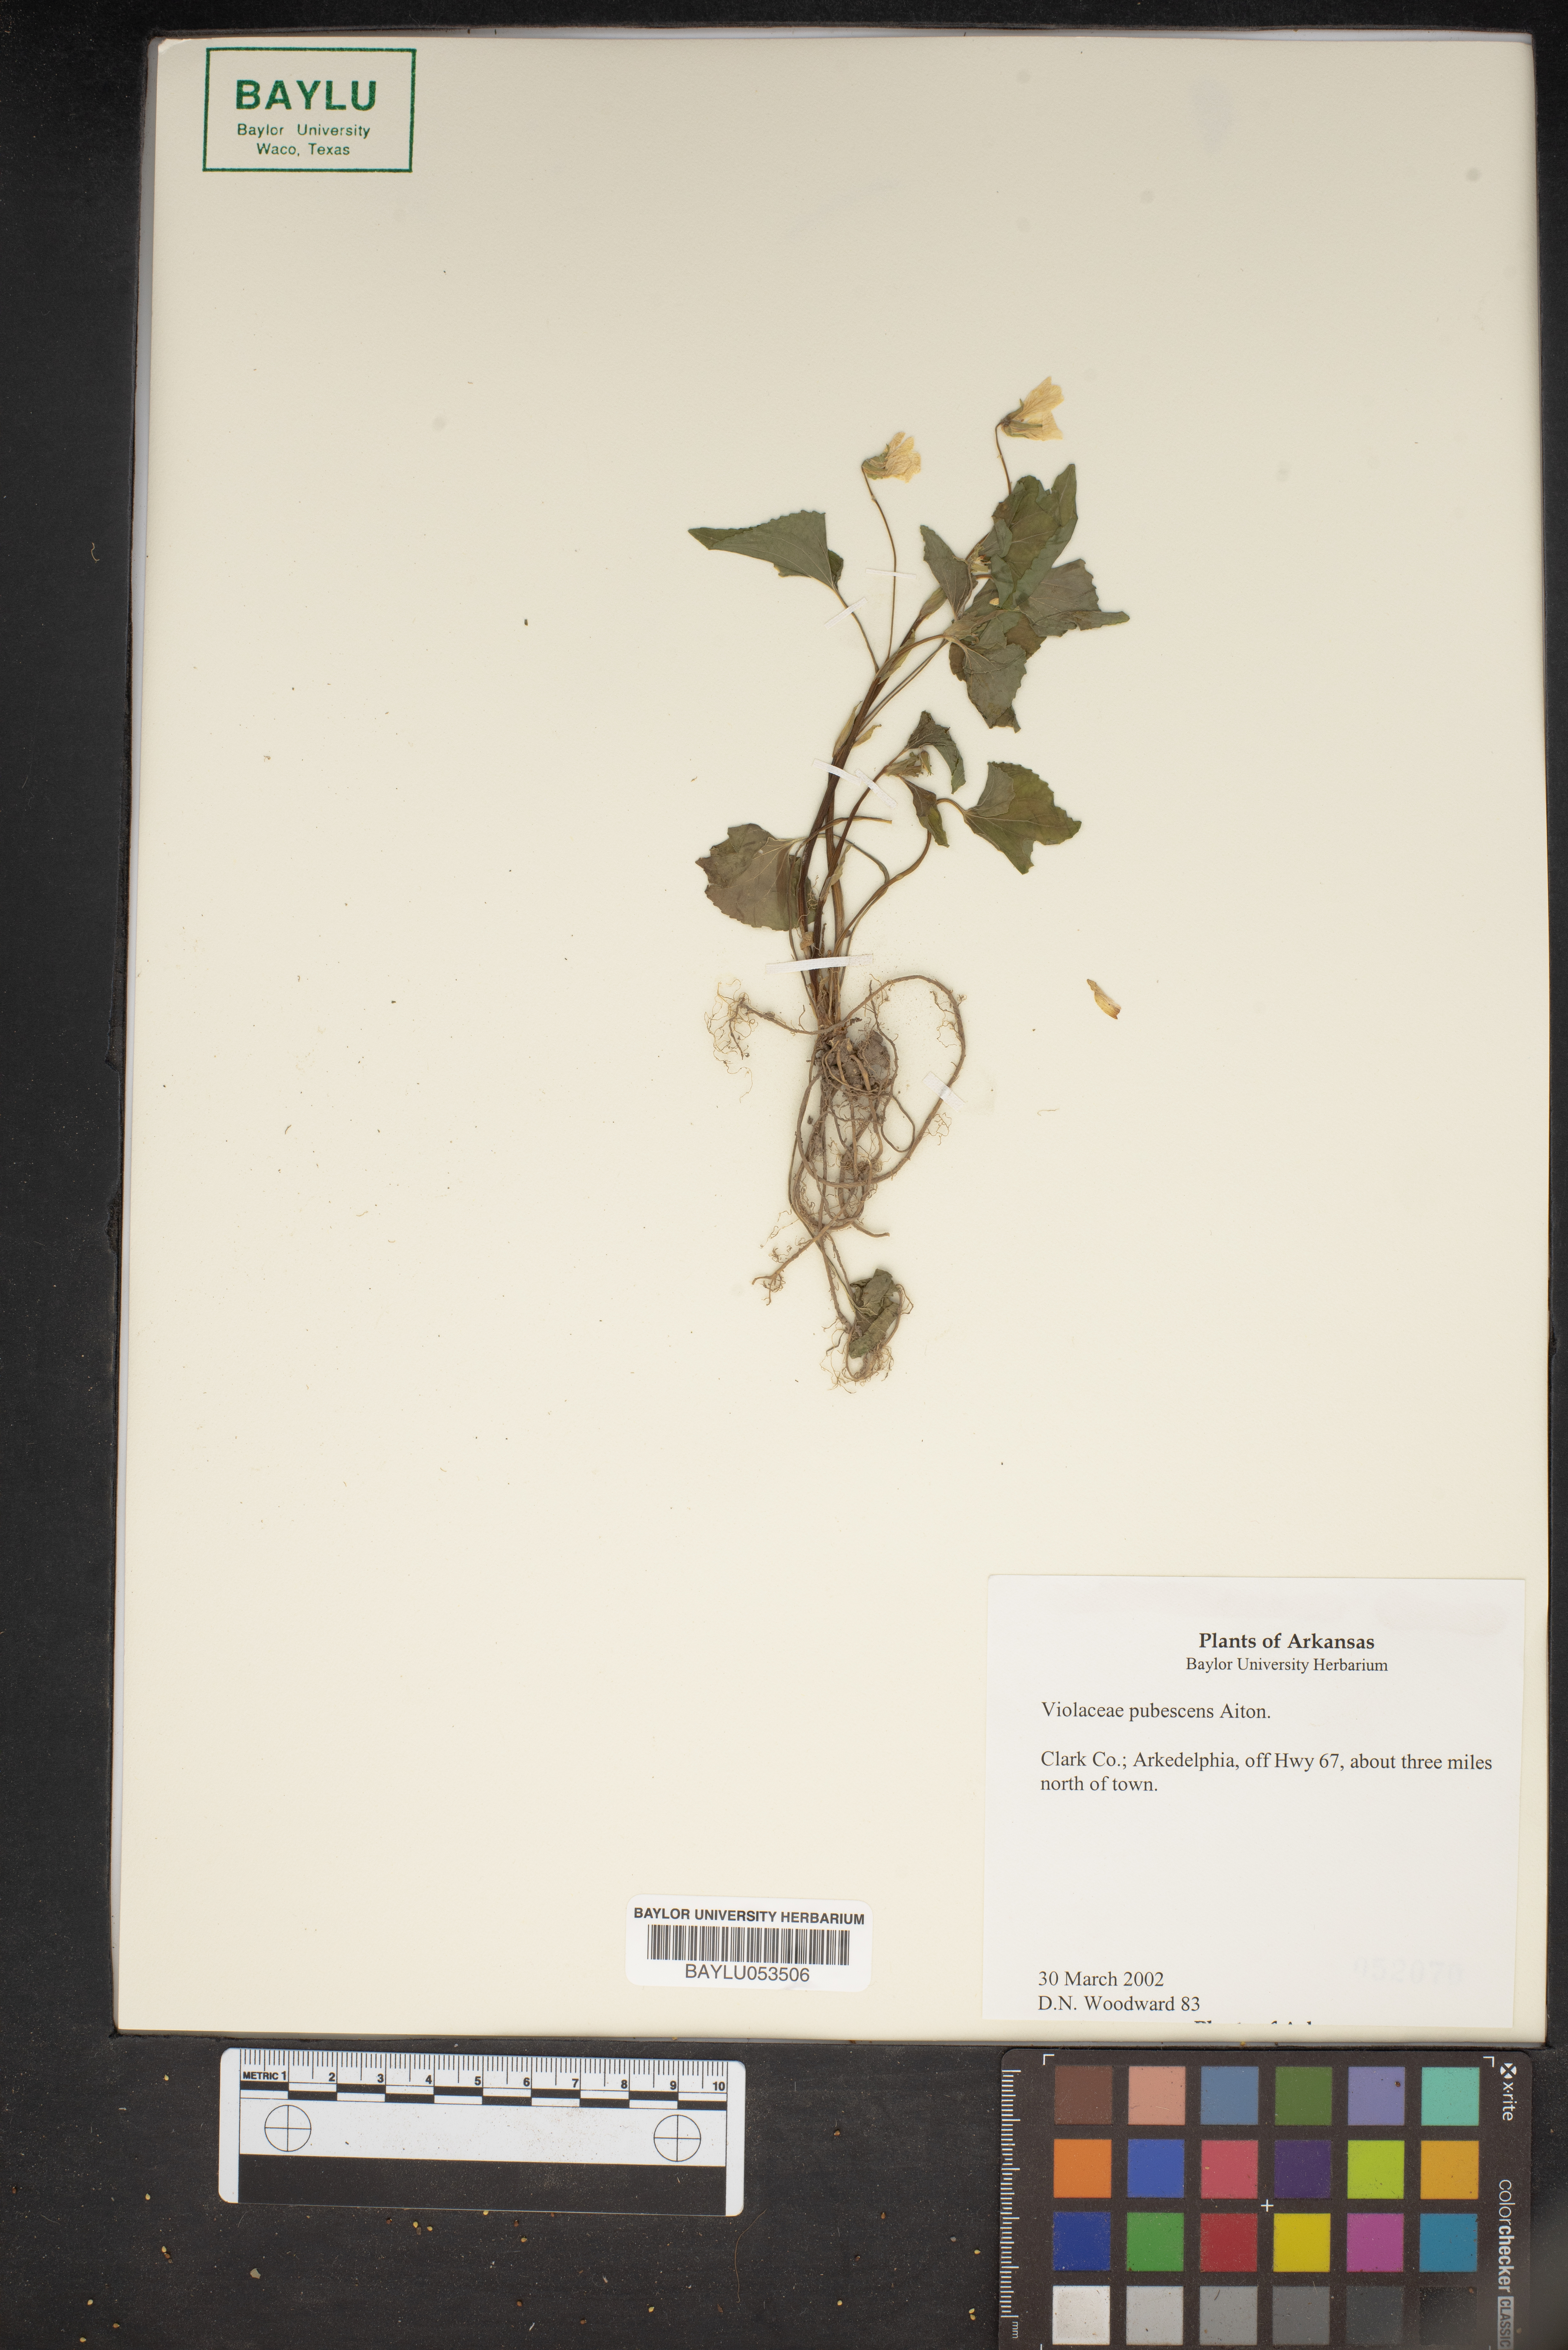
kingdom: Plantae
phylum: Tracheophyta
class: Magnoliopsida
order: Malpighiales
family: Violaceae
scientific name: Violaceae
